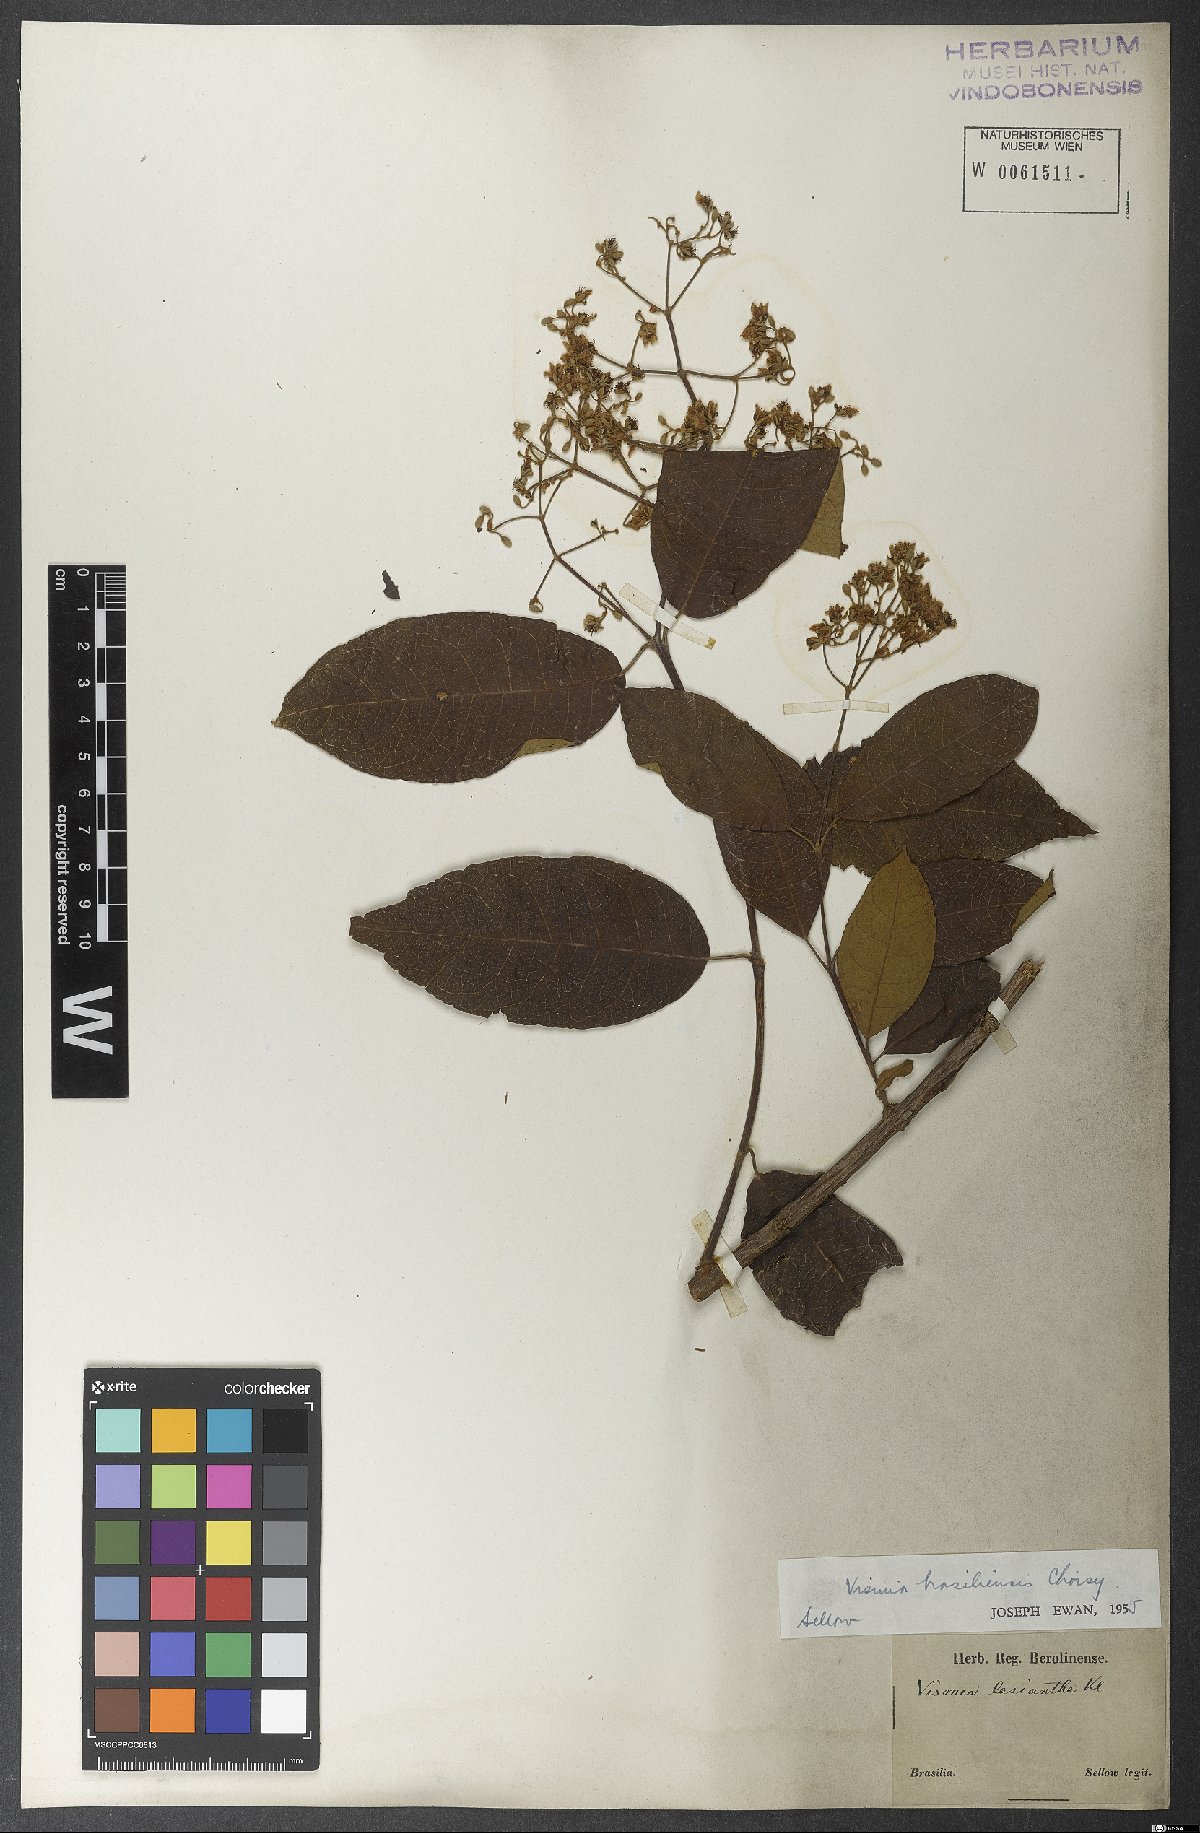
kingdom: Plantae
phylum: Tracheophyta
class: Magnoliopsida
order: Malpighiales
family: Hypericaceae
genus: Vismia
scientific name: Vismia brasiliensis
